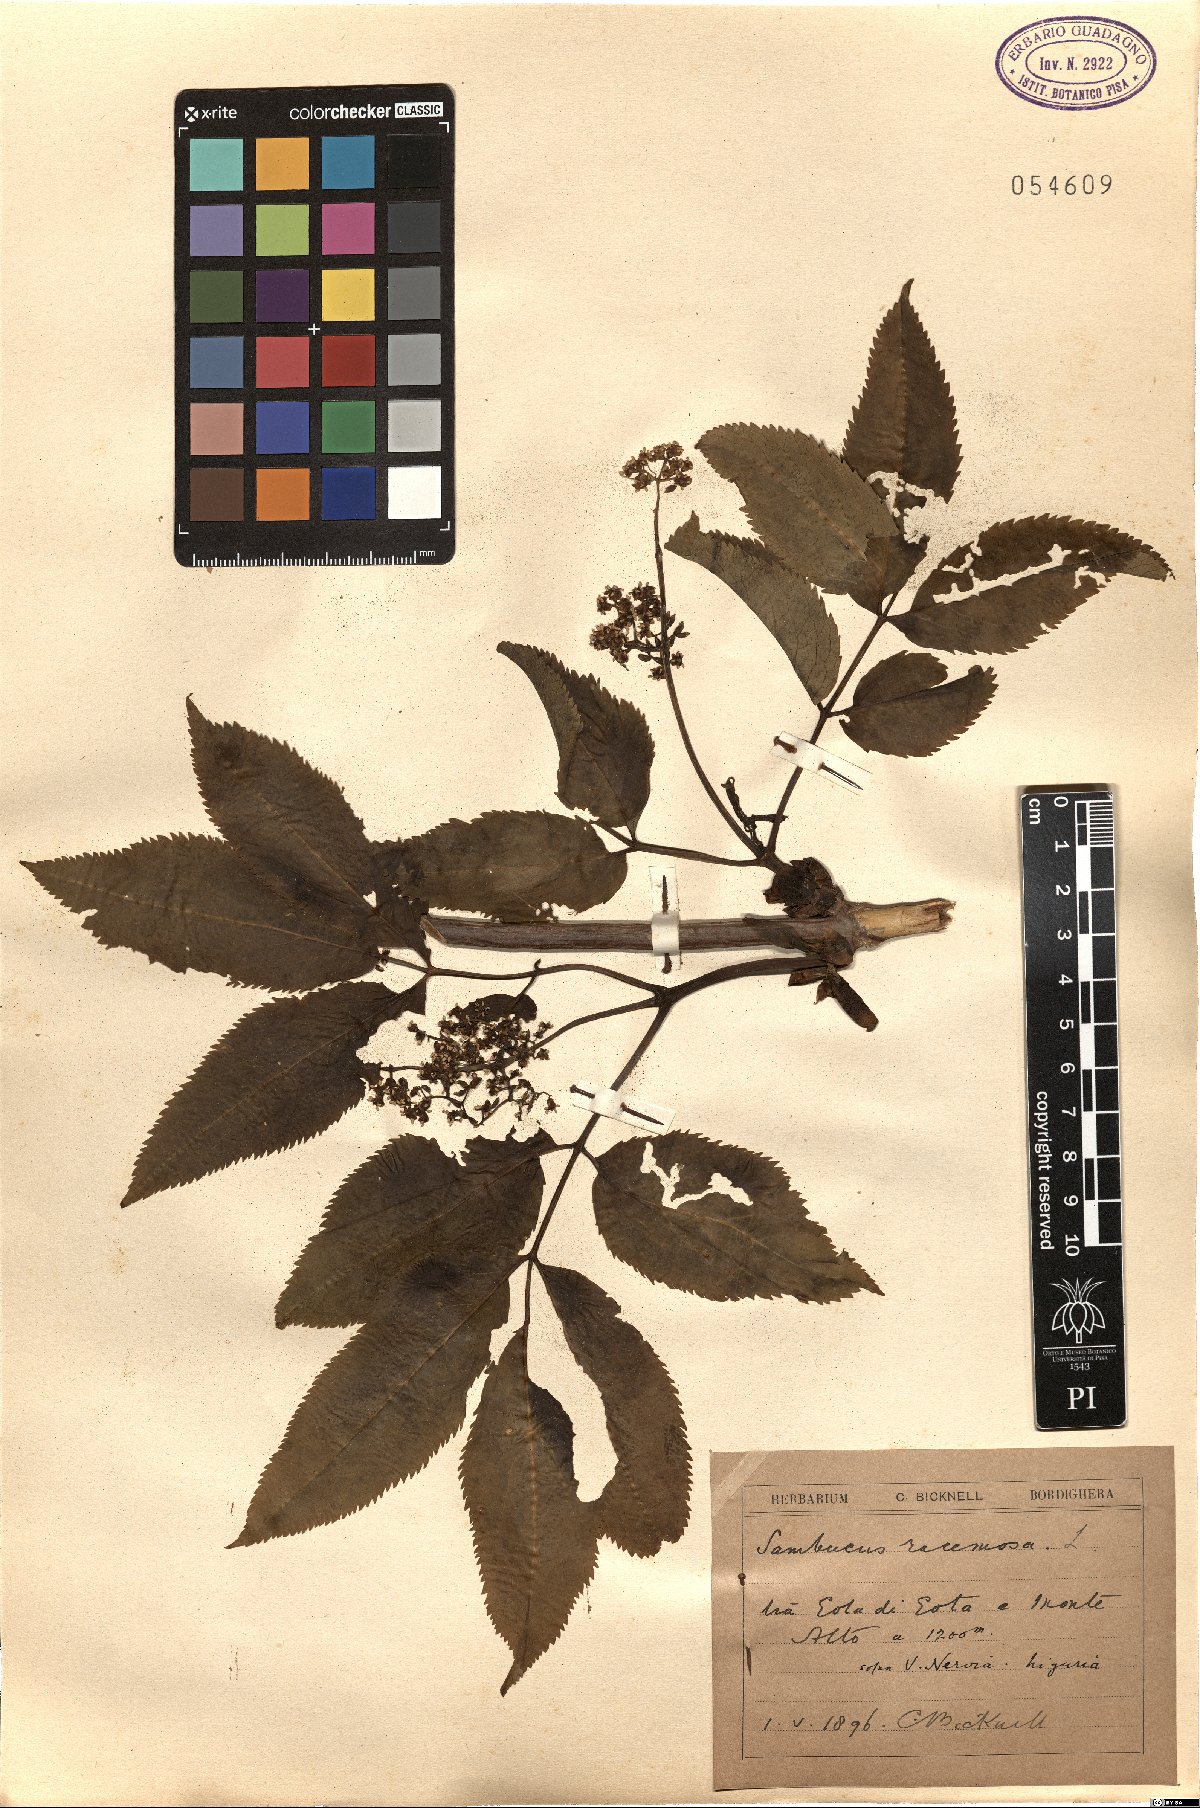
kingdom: Plantae
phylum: Tracheophyta
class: Magnoliopsida
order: Dipsacales
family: Viburnaceae
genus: Sambucus
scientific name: Sambucus racemosa
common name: Red-berried elder
